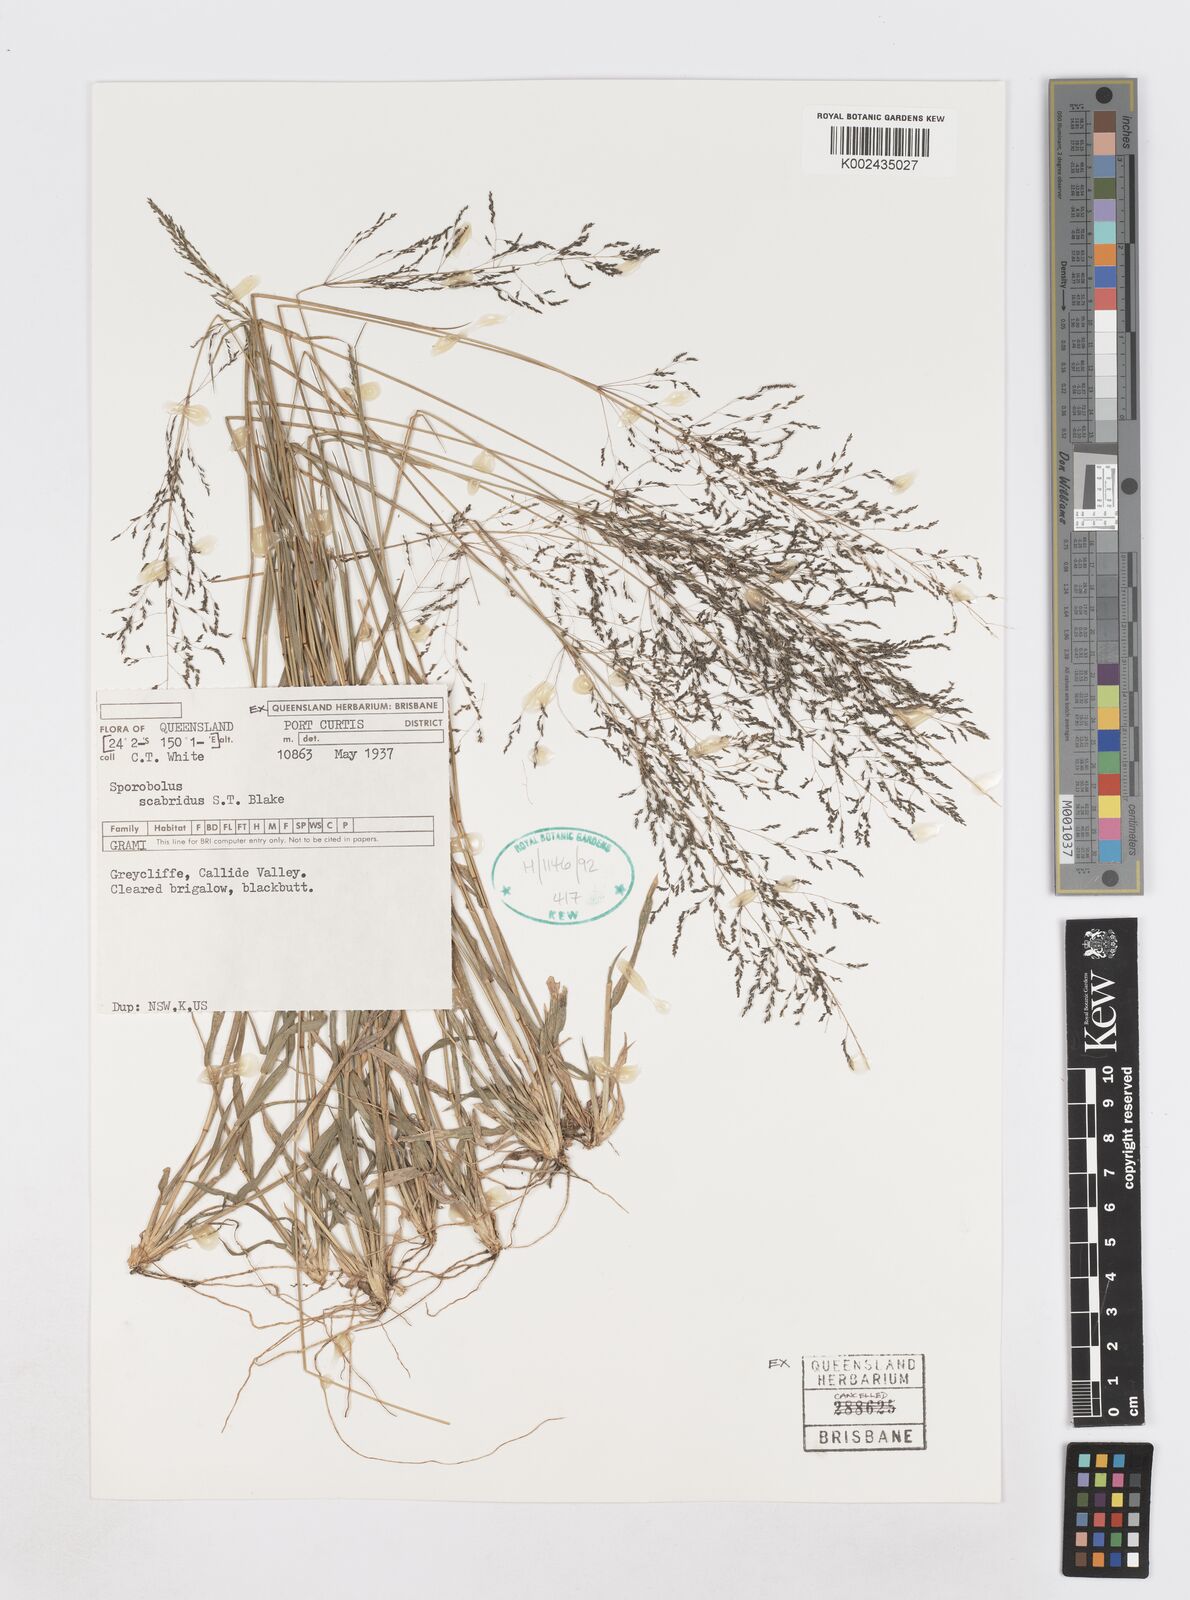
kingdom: Plantae
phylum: Tracheophyta
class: Liliopsida
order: Poales
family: Poaceae
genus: Sporobolus
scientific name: Sporobolus scabridus
